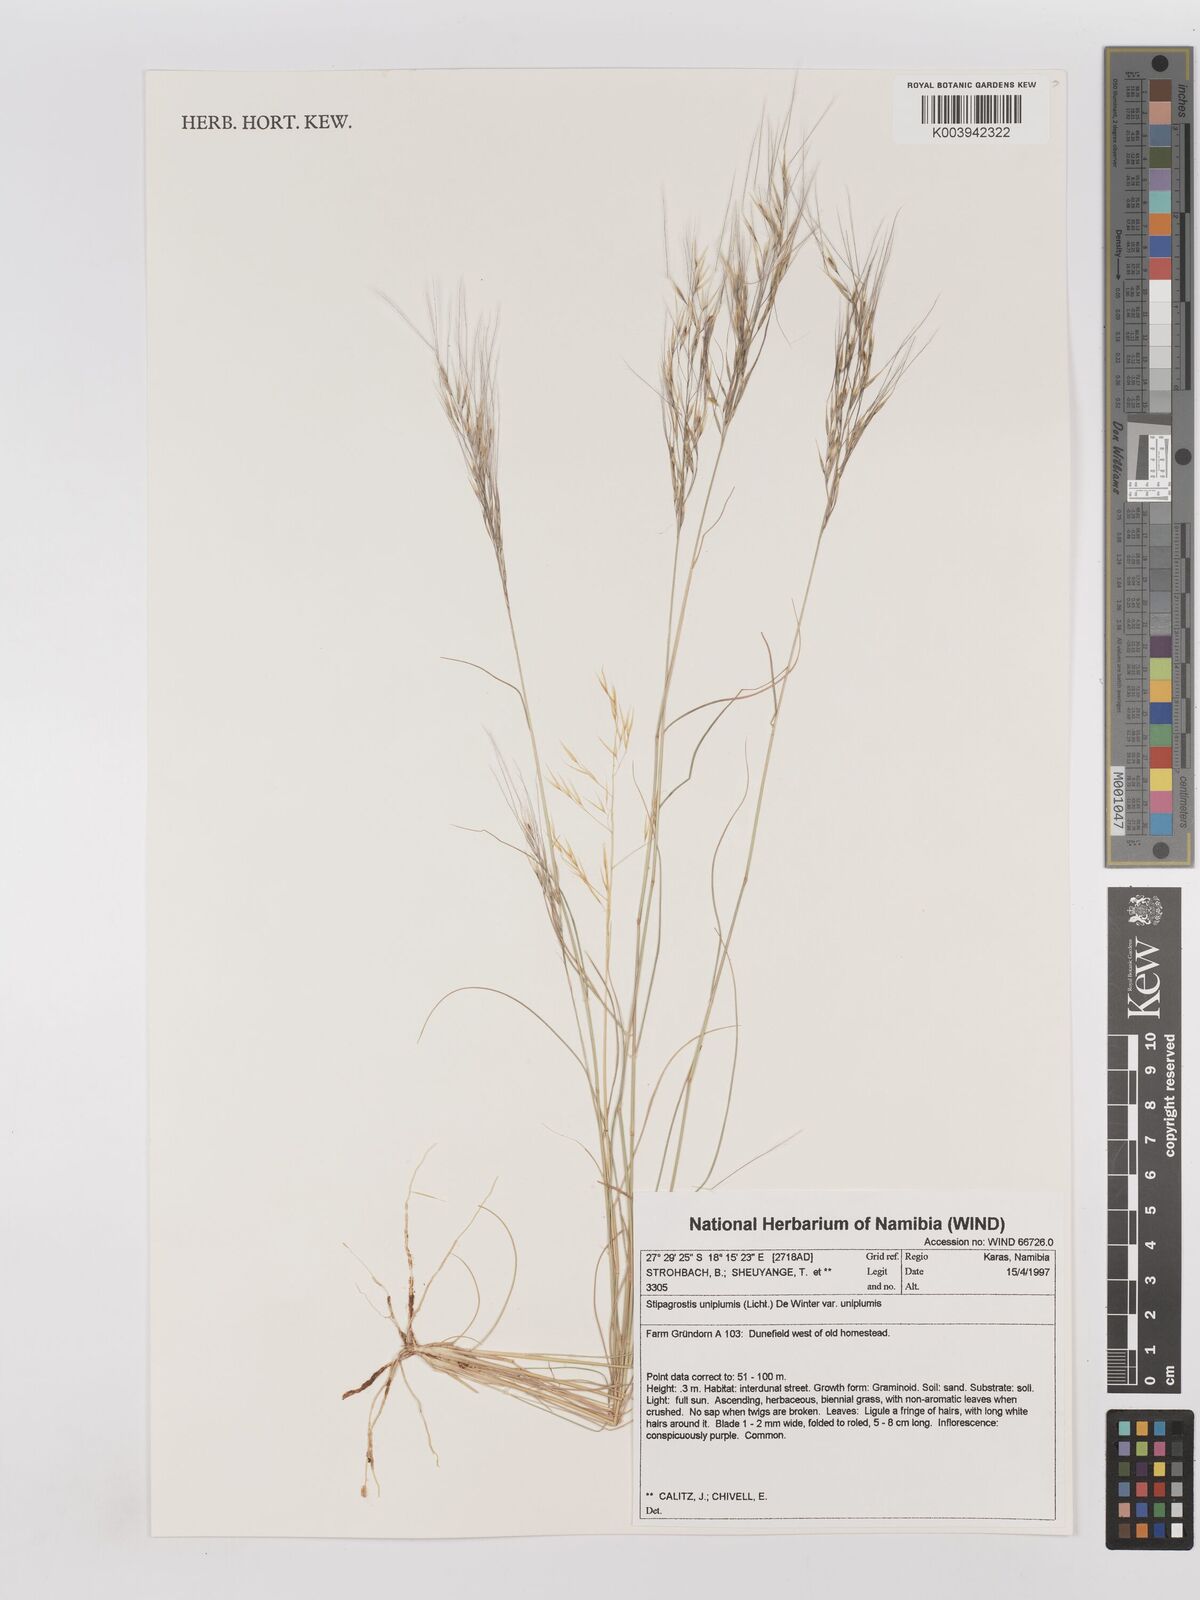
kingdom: Plantae
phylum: Tracheophyta
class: Liliopsida
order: Poales
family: Poaceae
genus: Stipagrostis
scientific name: Stipagrostis uniplumis
